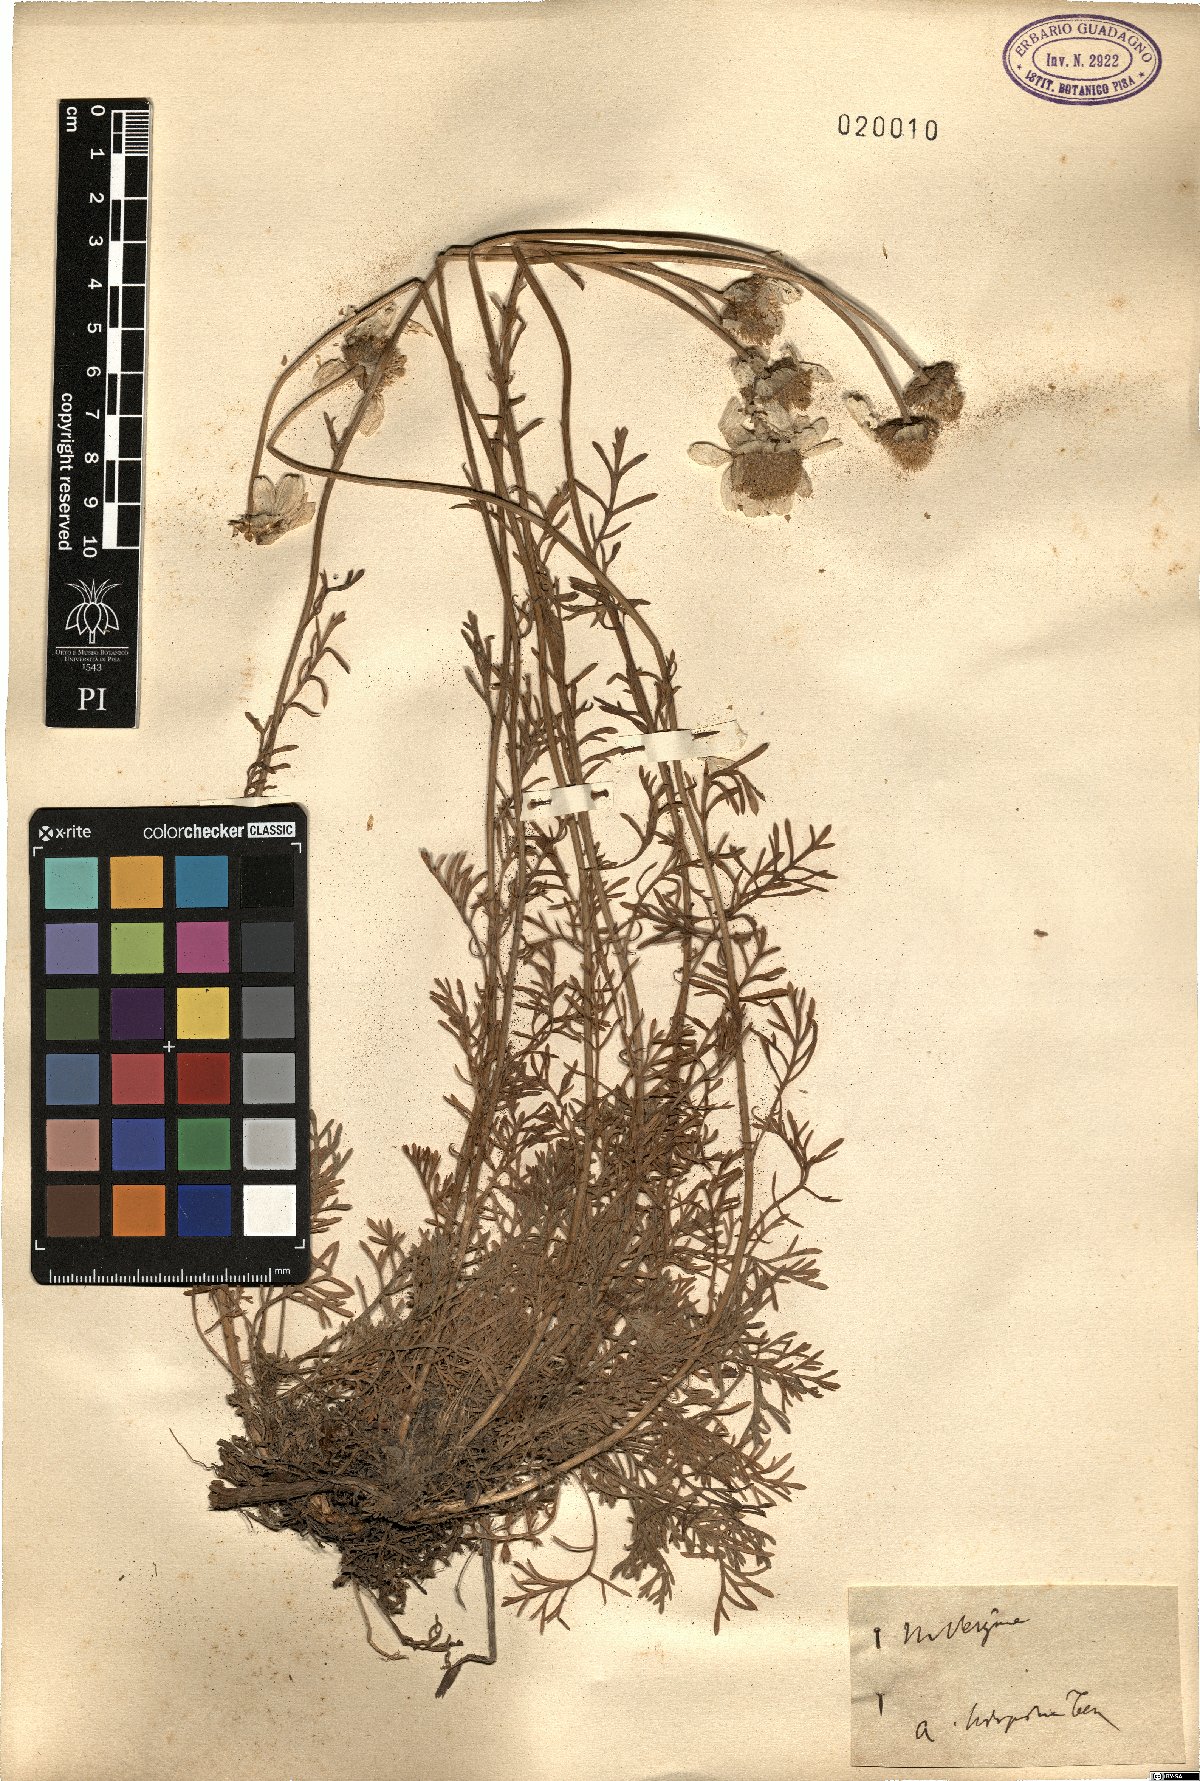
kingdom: Plantae
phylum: Tracheophyta
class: Magnoliopsida
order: Asterales
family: Asteraceae
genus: Anthemis
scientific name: Anthemis cretica
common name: Mountain dog-daisy
